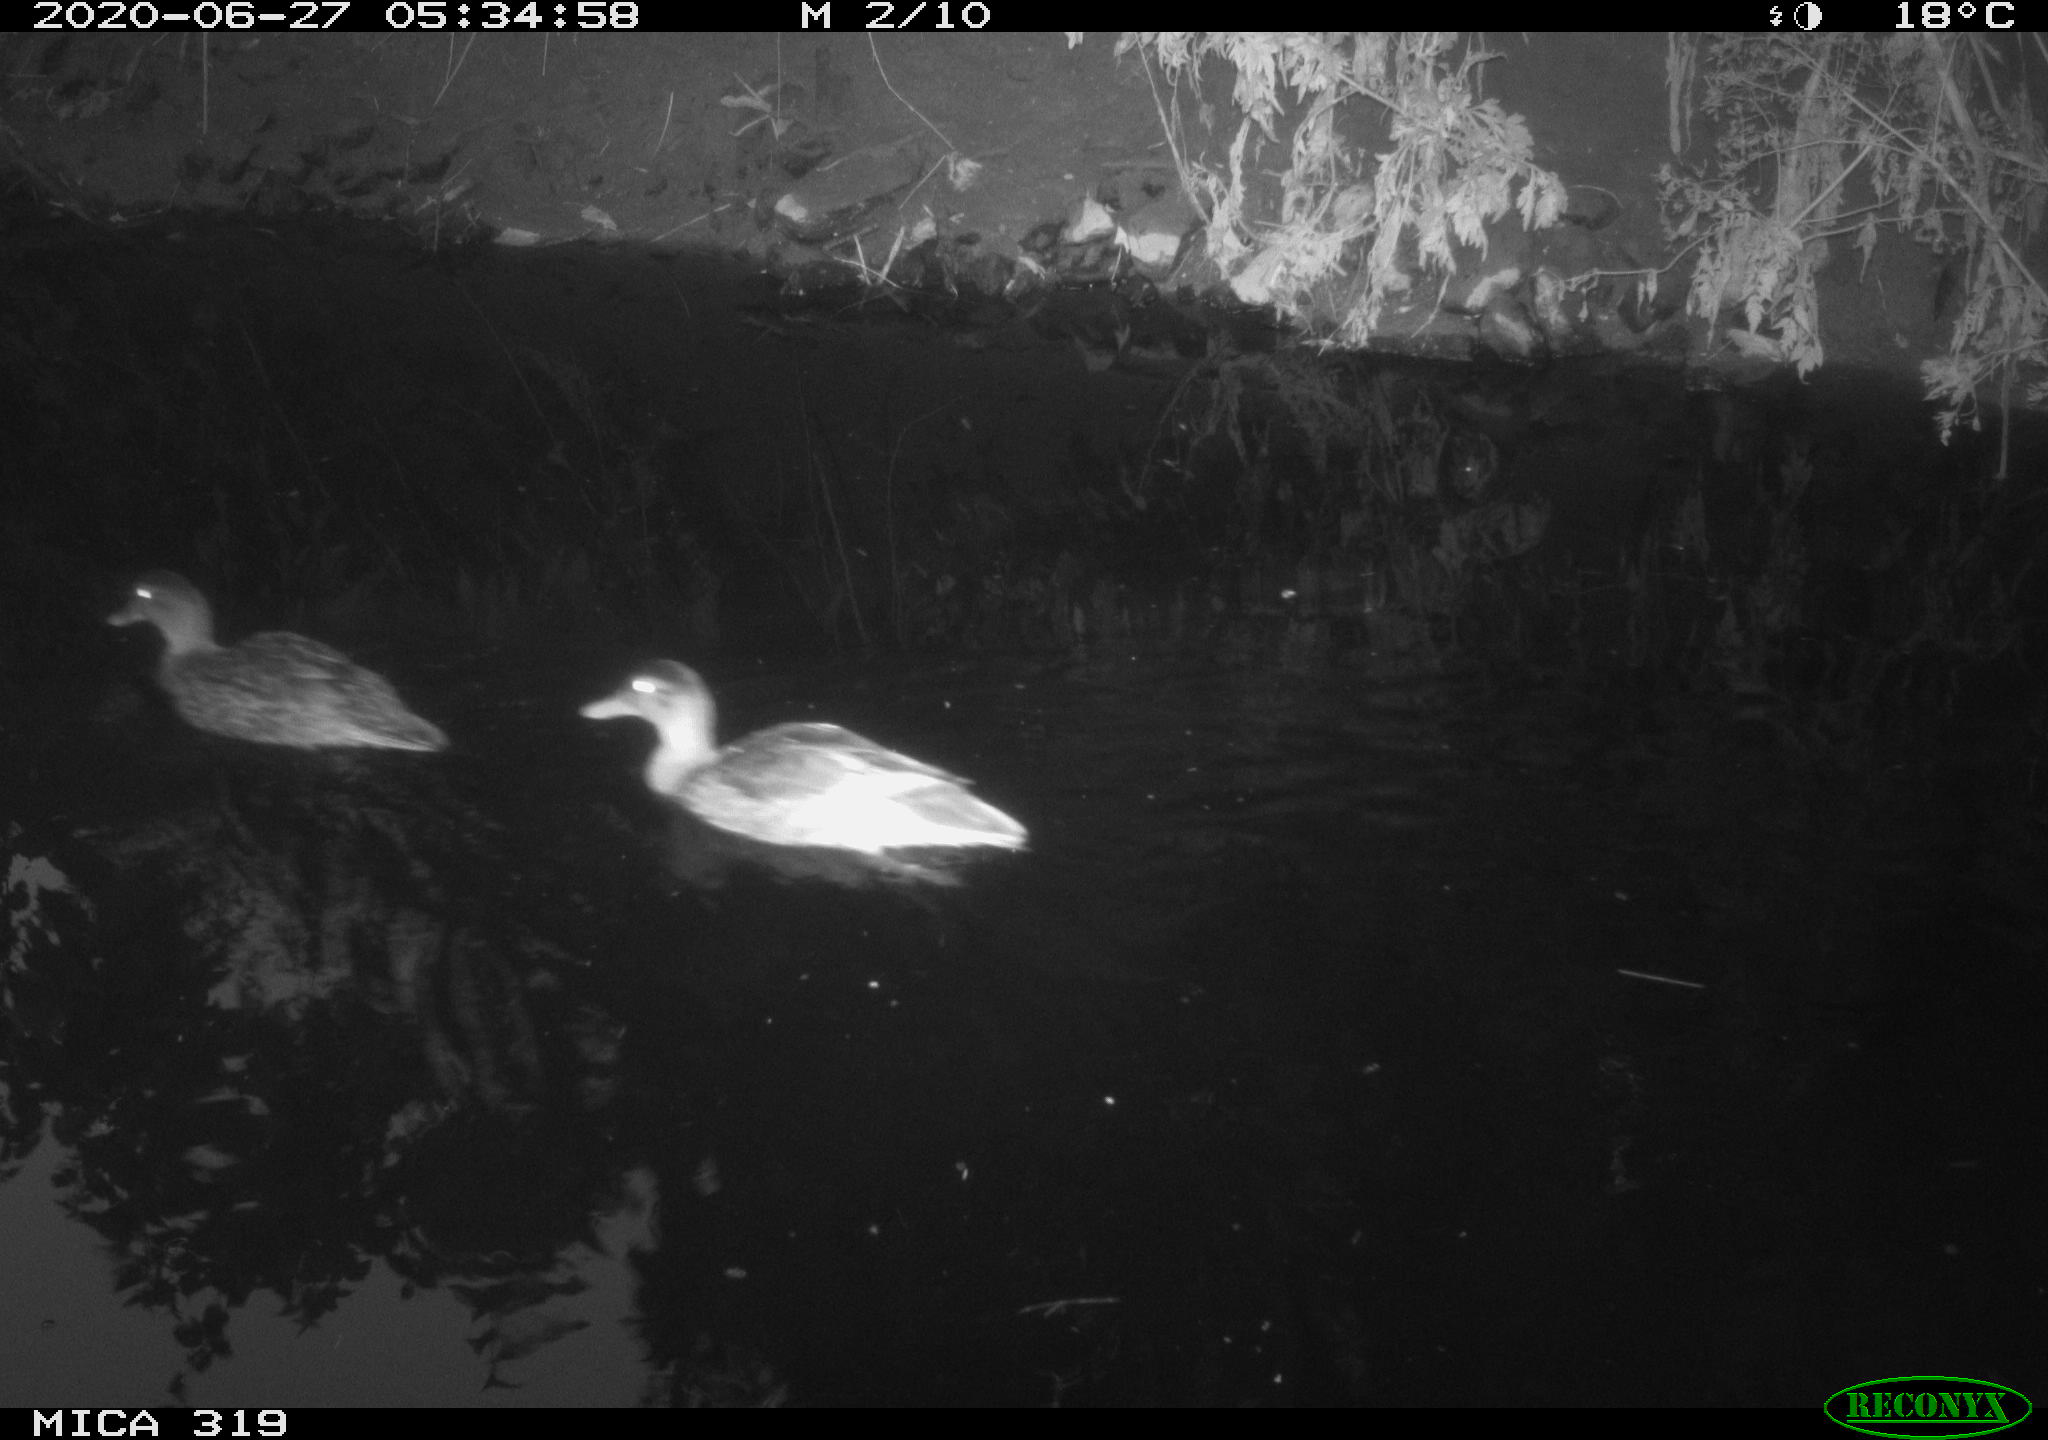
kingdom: Animalia
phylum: Chordata
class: Aves
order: Anseriformes
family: Anatidae
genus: Anas
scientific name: Anas platyrhynchos
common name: Mallard
